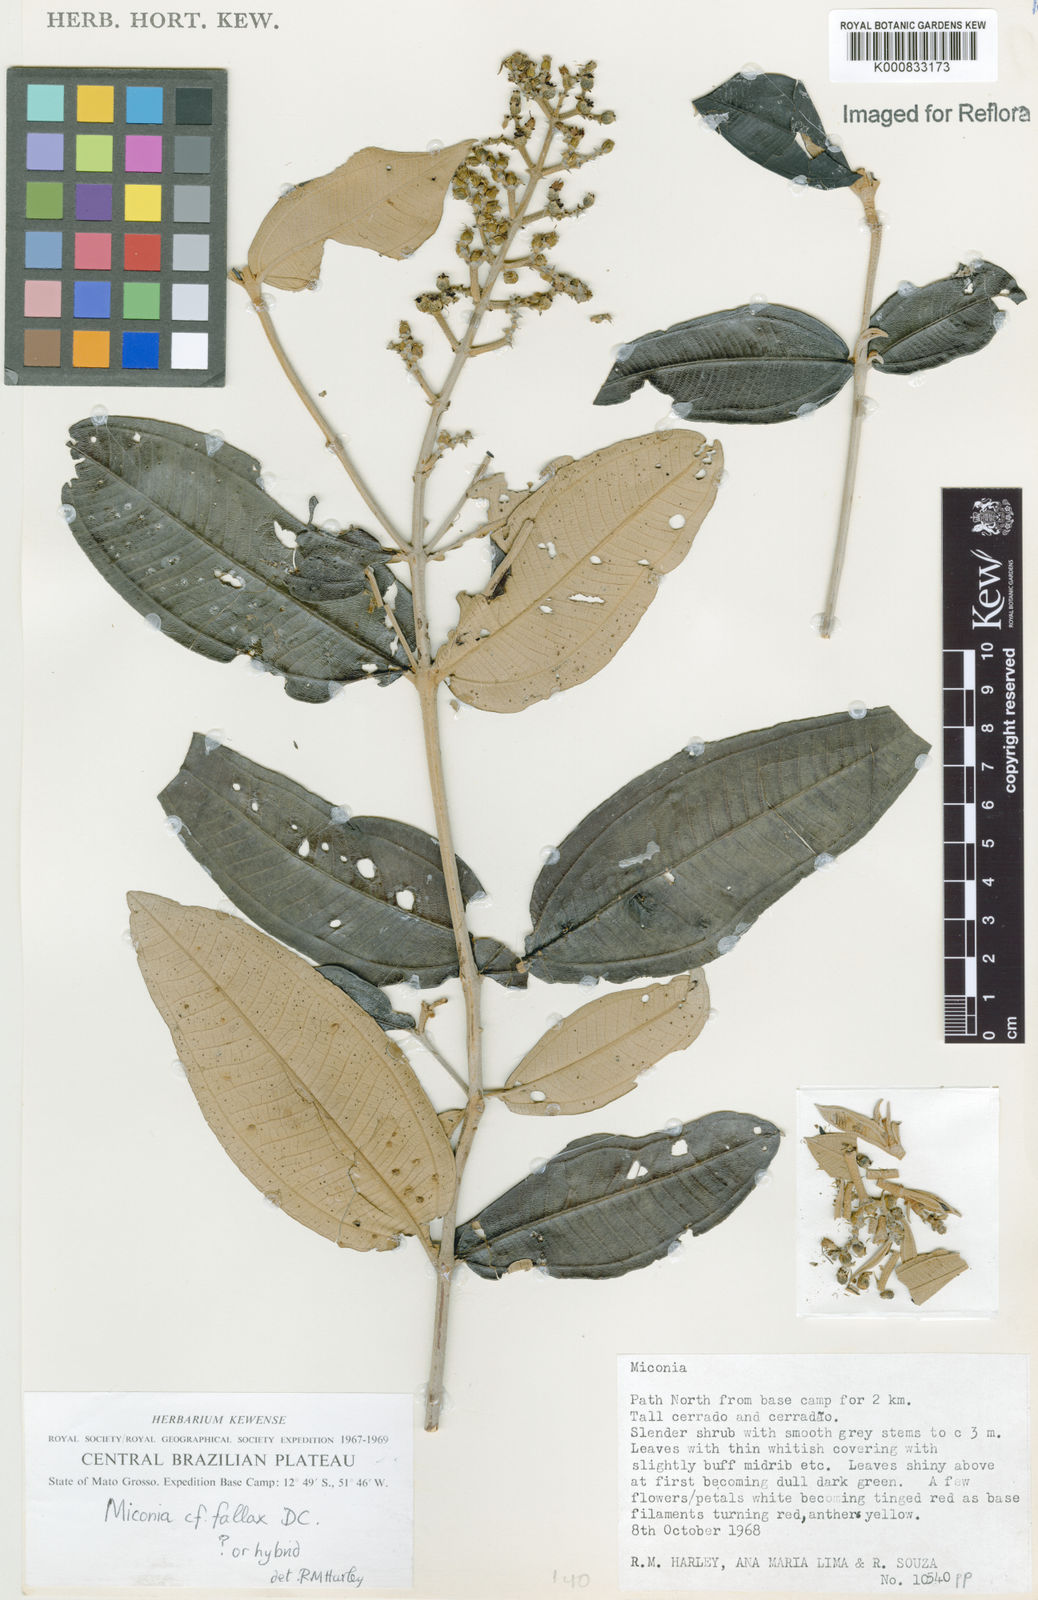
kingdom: Plantae
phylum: Tracheophyta
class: Magnoliopsida
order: Myrtales
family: Melastomataceae
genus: Miconia
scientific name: Miconia fallax
